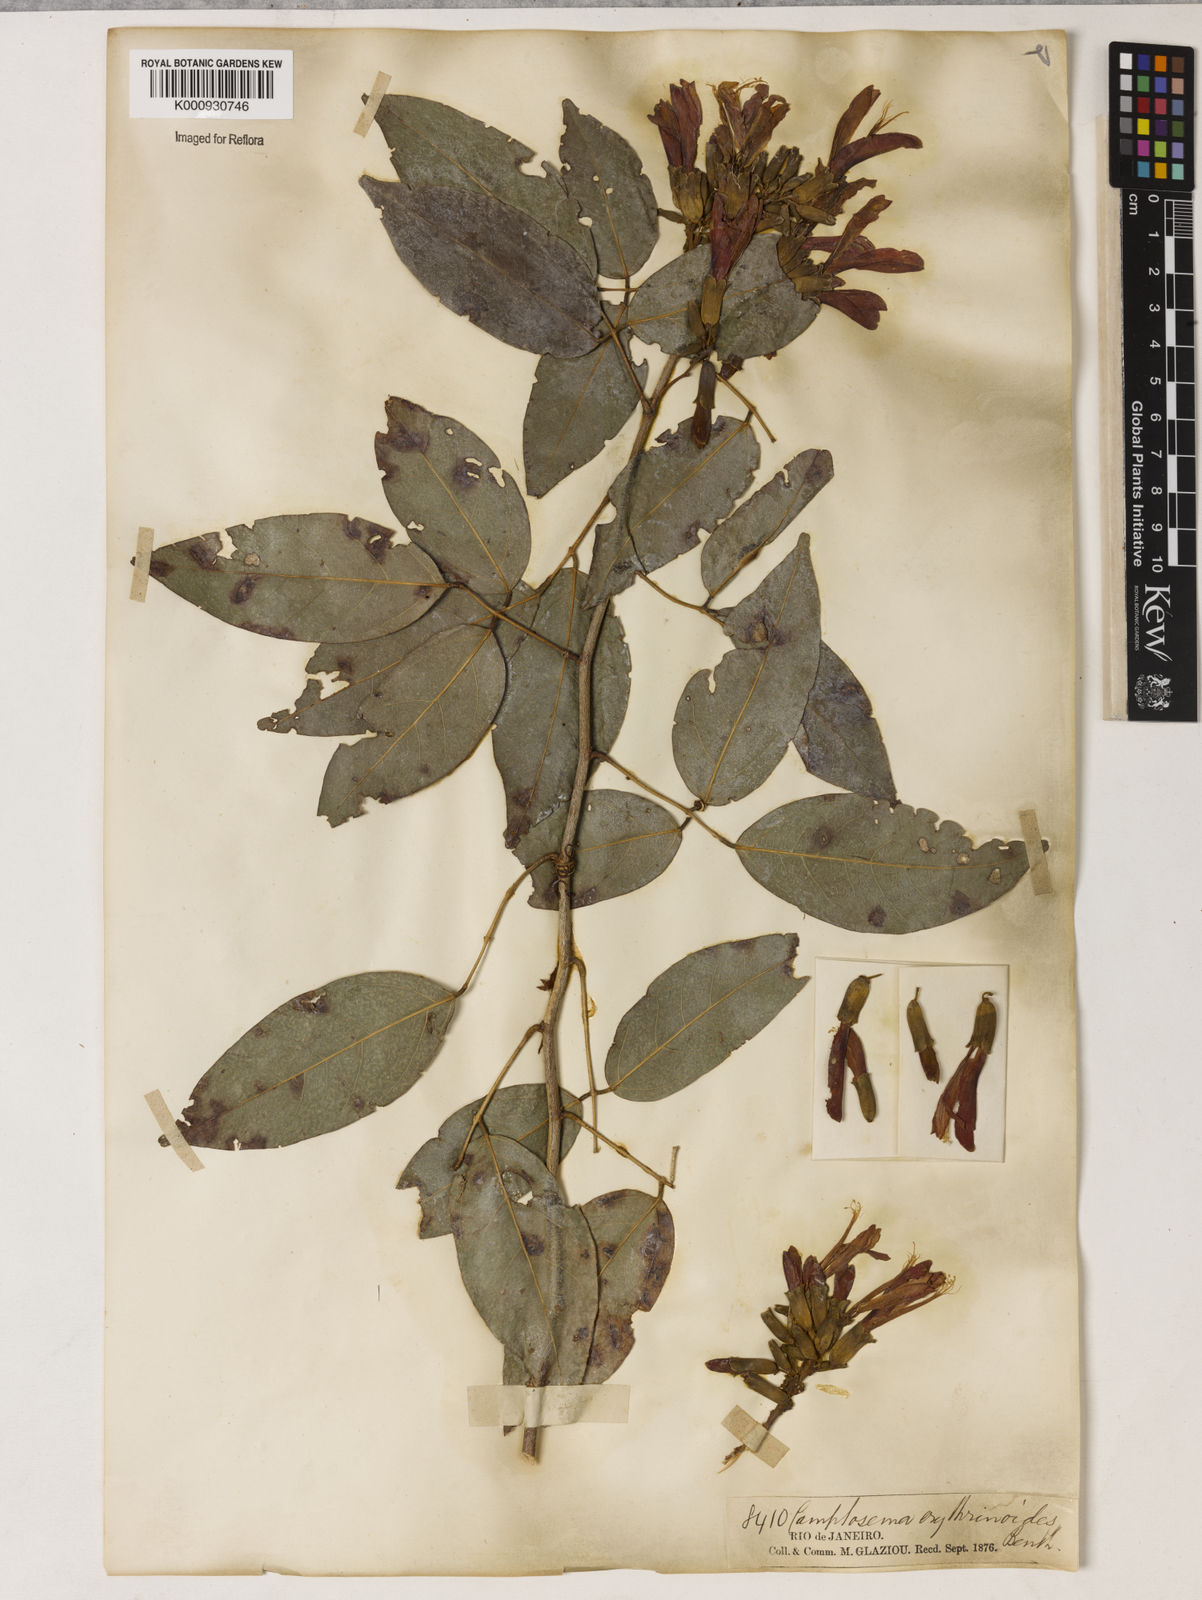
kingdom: Plantae
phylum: Tracheophyta
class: Magnoliopsida
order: Fabales
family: Fabaceae
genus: Cratylia
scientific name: Cratylia isopetala
